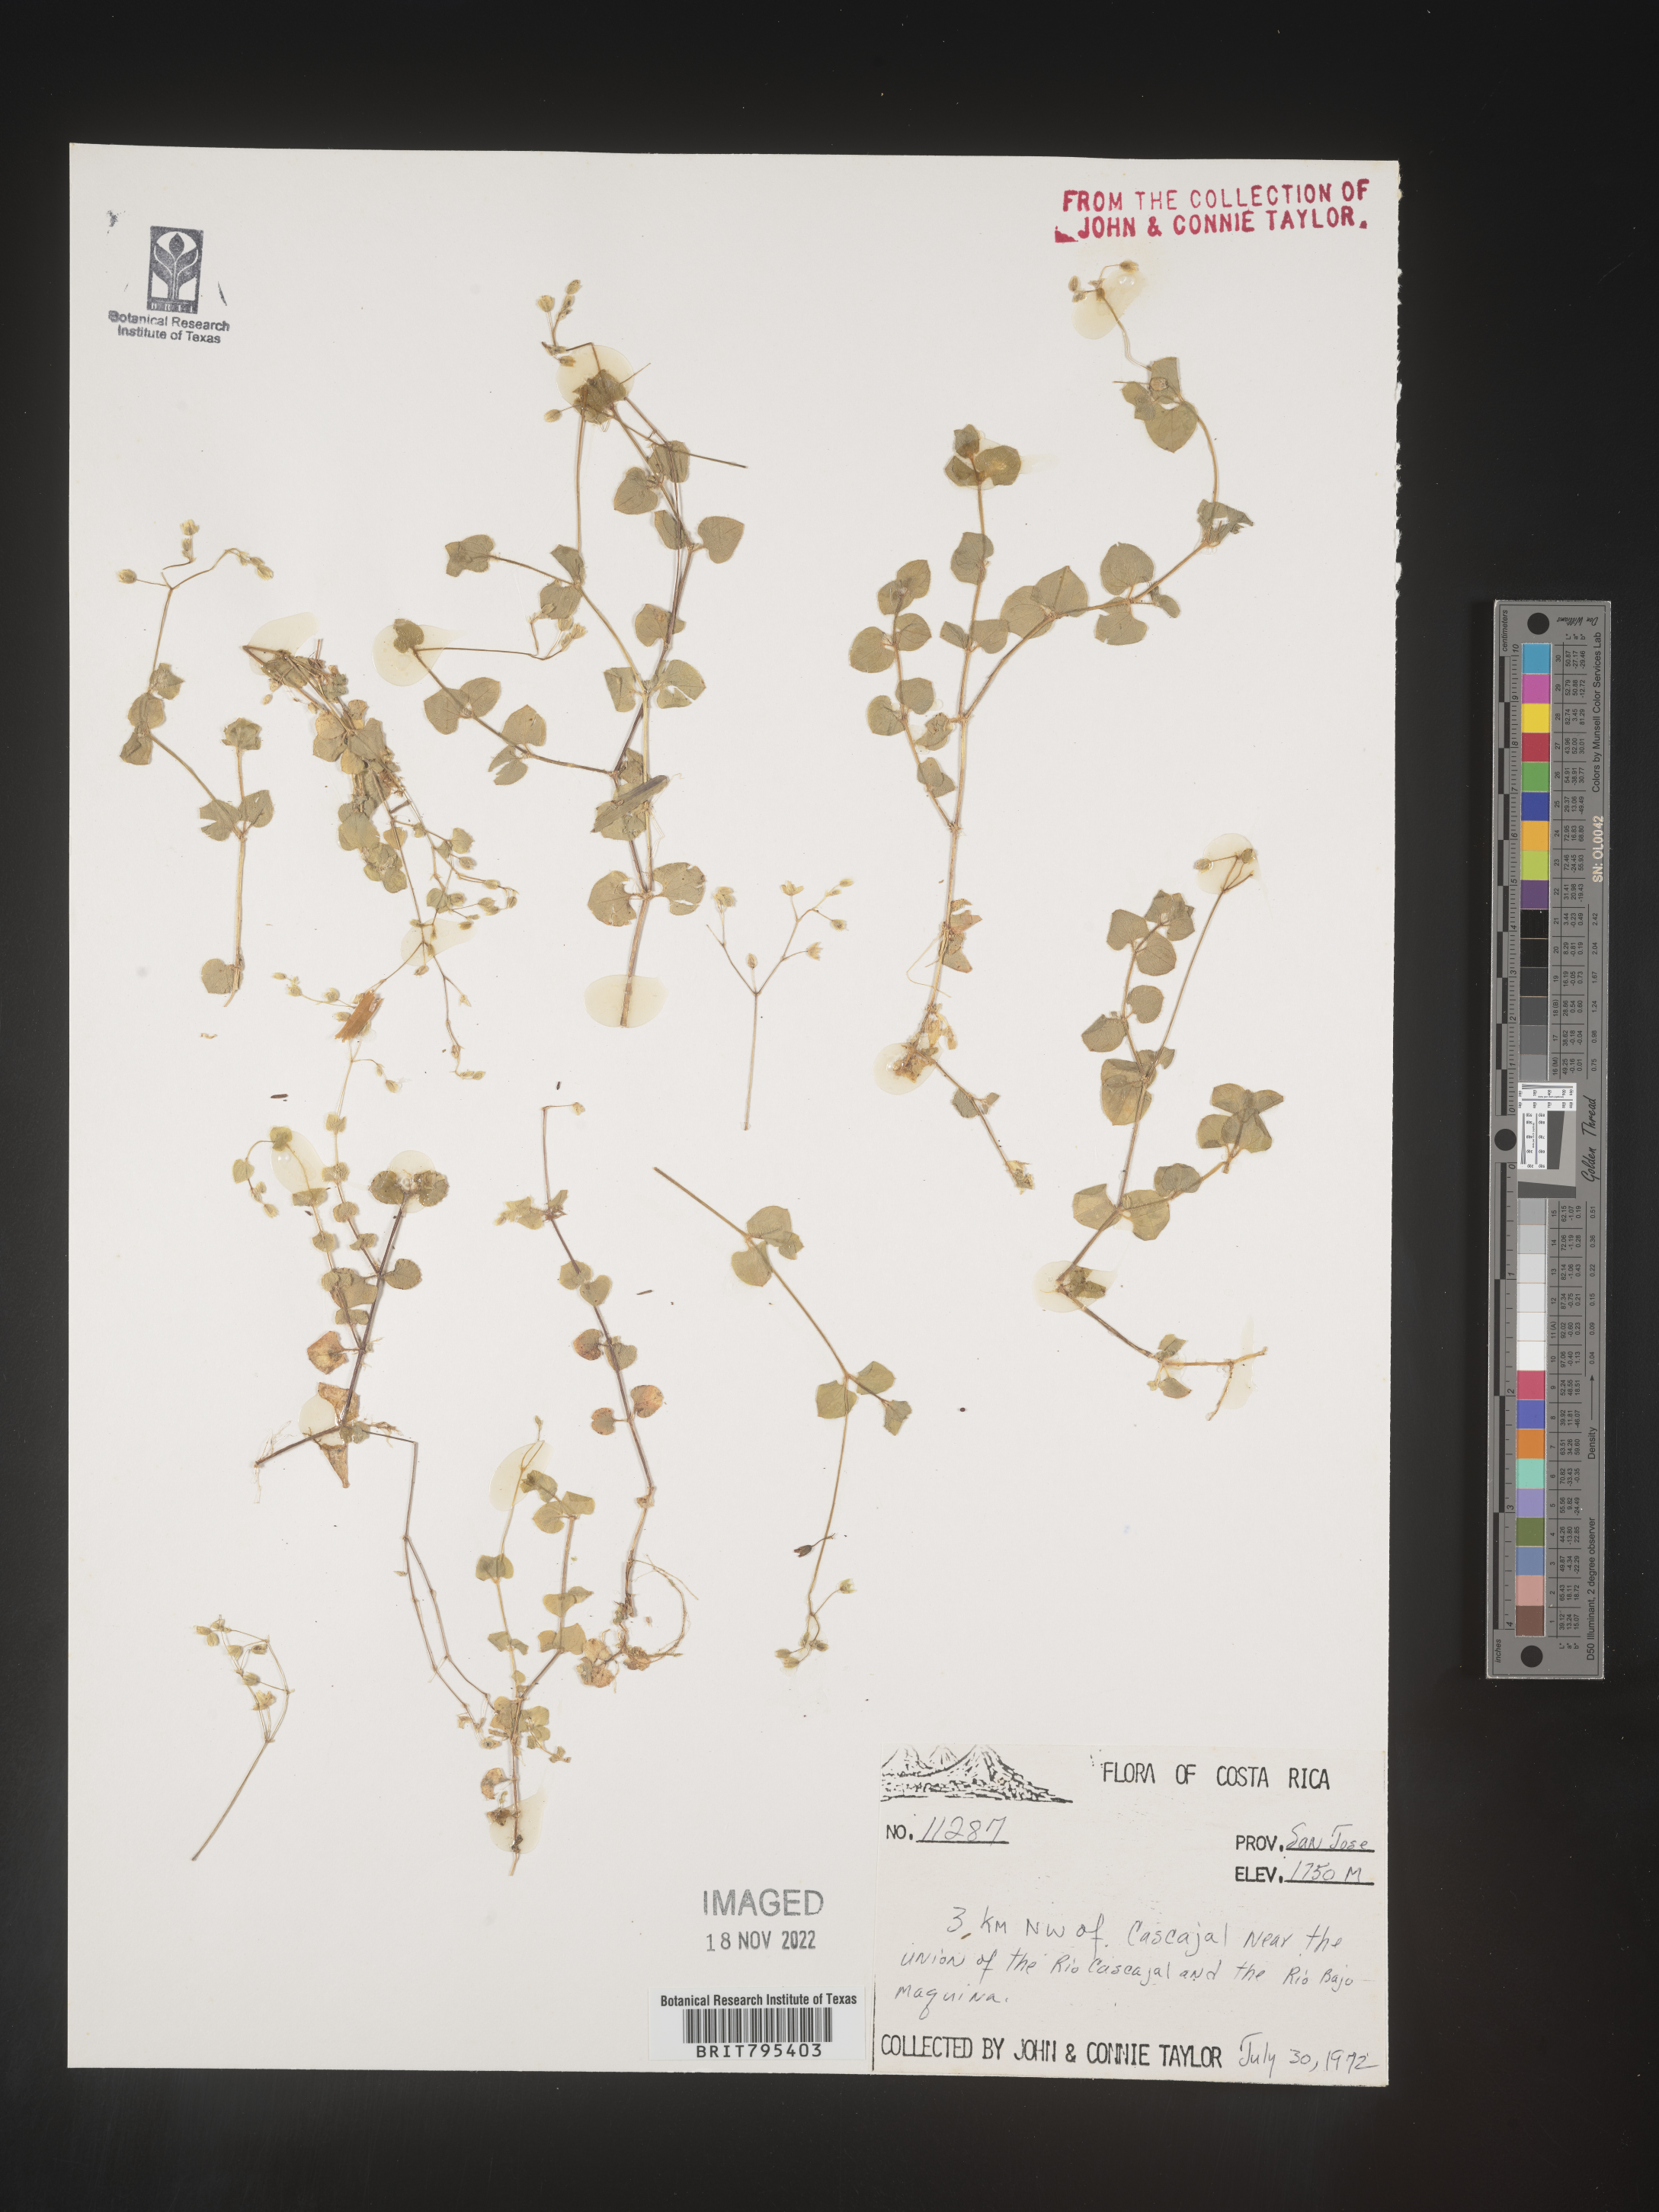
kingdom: Plantae
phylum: Tracheophyta
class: Magnoliopsida
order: Caryophyllales
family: Caryophyllaceae
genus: Stellaria
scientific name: Stellaria
